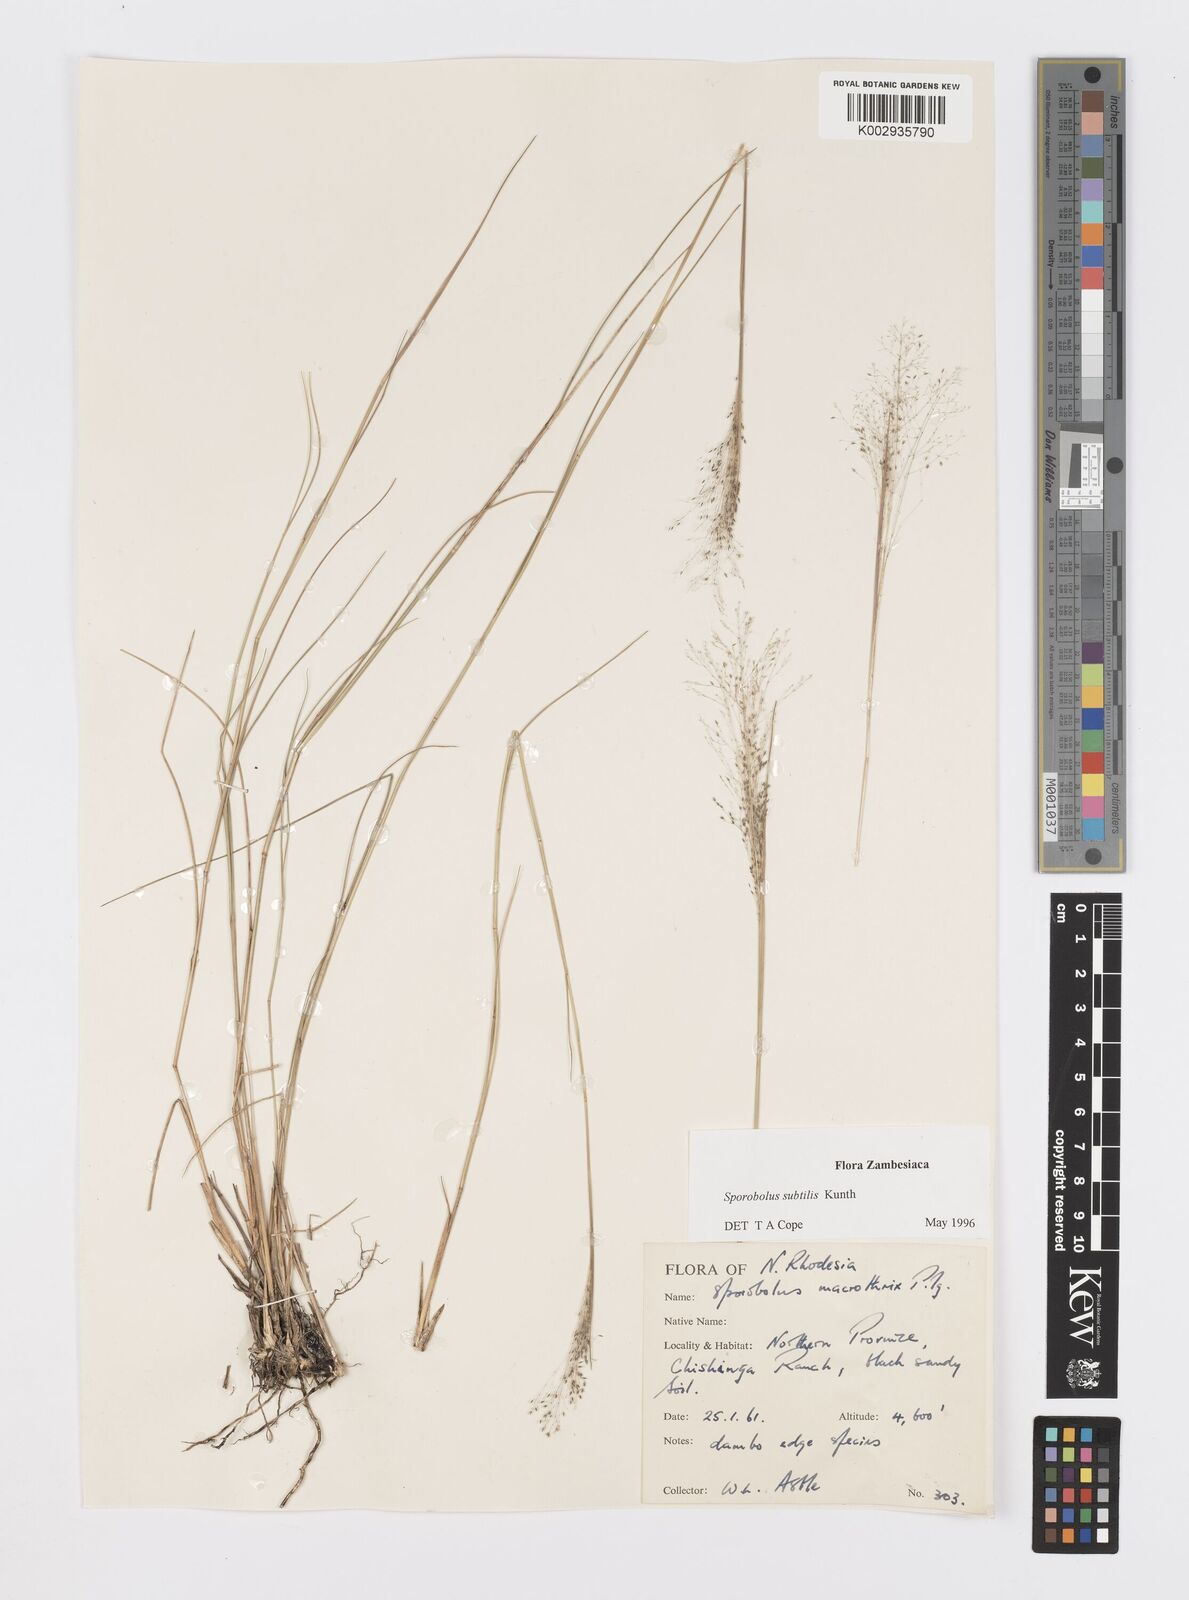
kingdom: Plantae
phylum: Tracheophyta
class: Liliopsida
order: Poales
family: Poaceae
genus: Sporobolus
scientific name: Sporobolus subtilis
